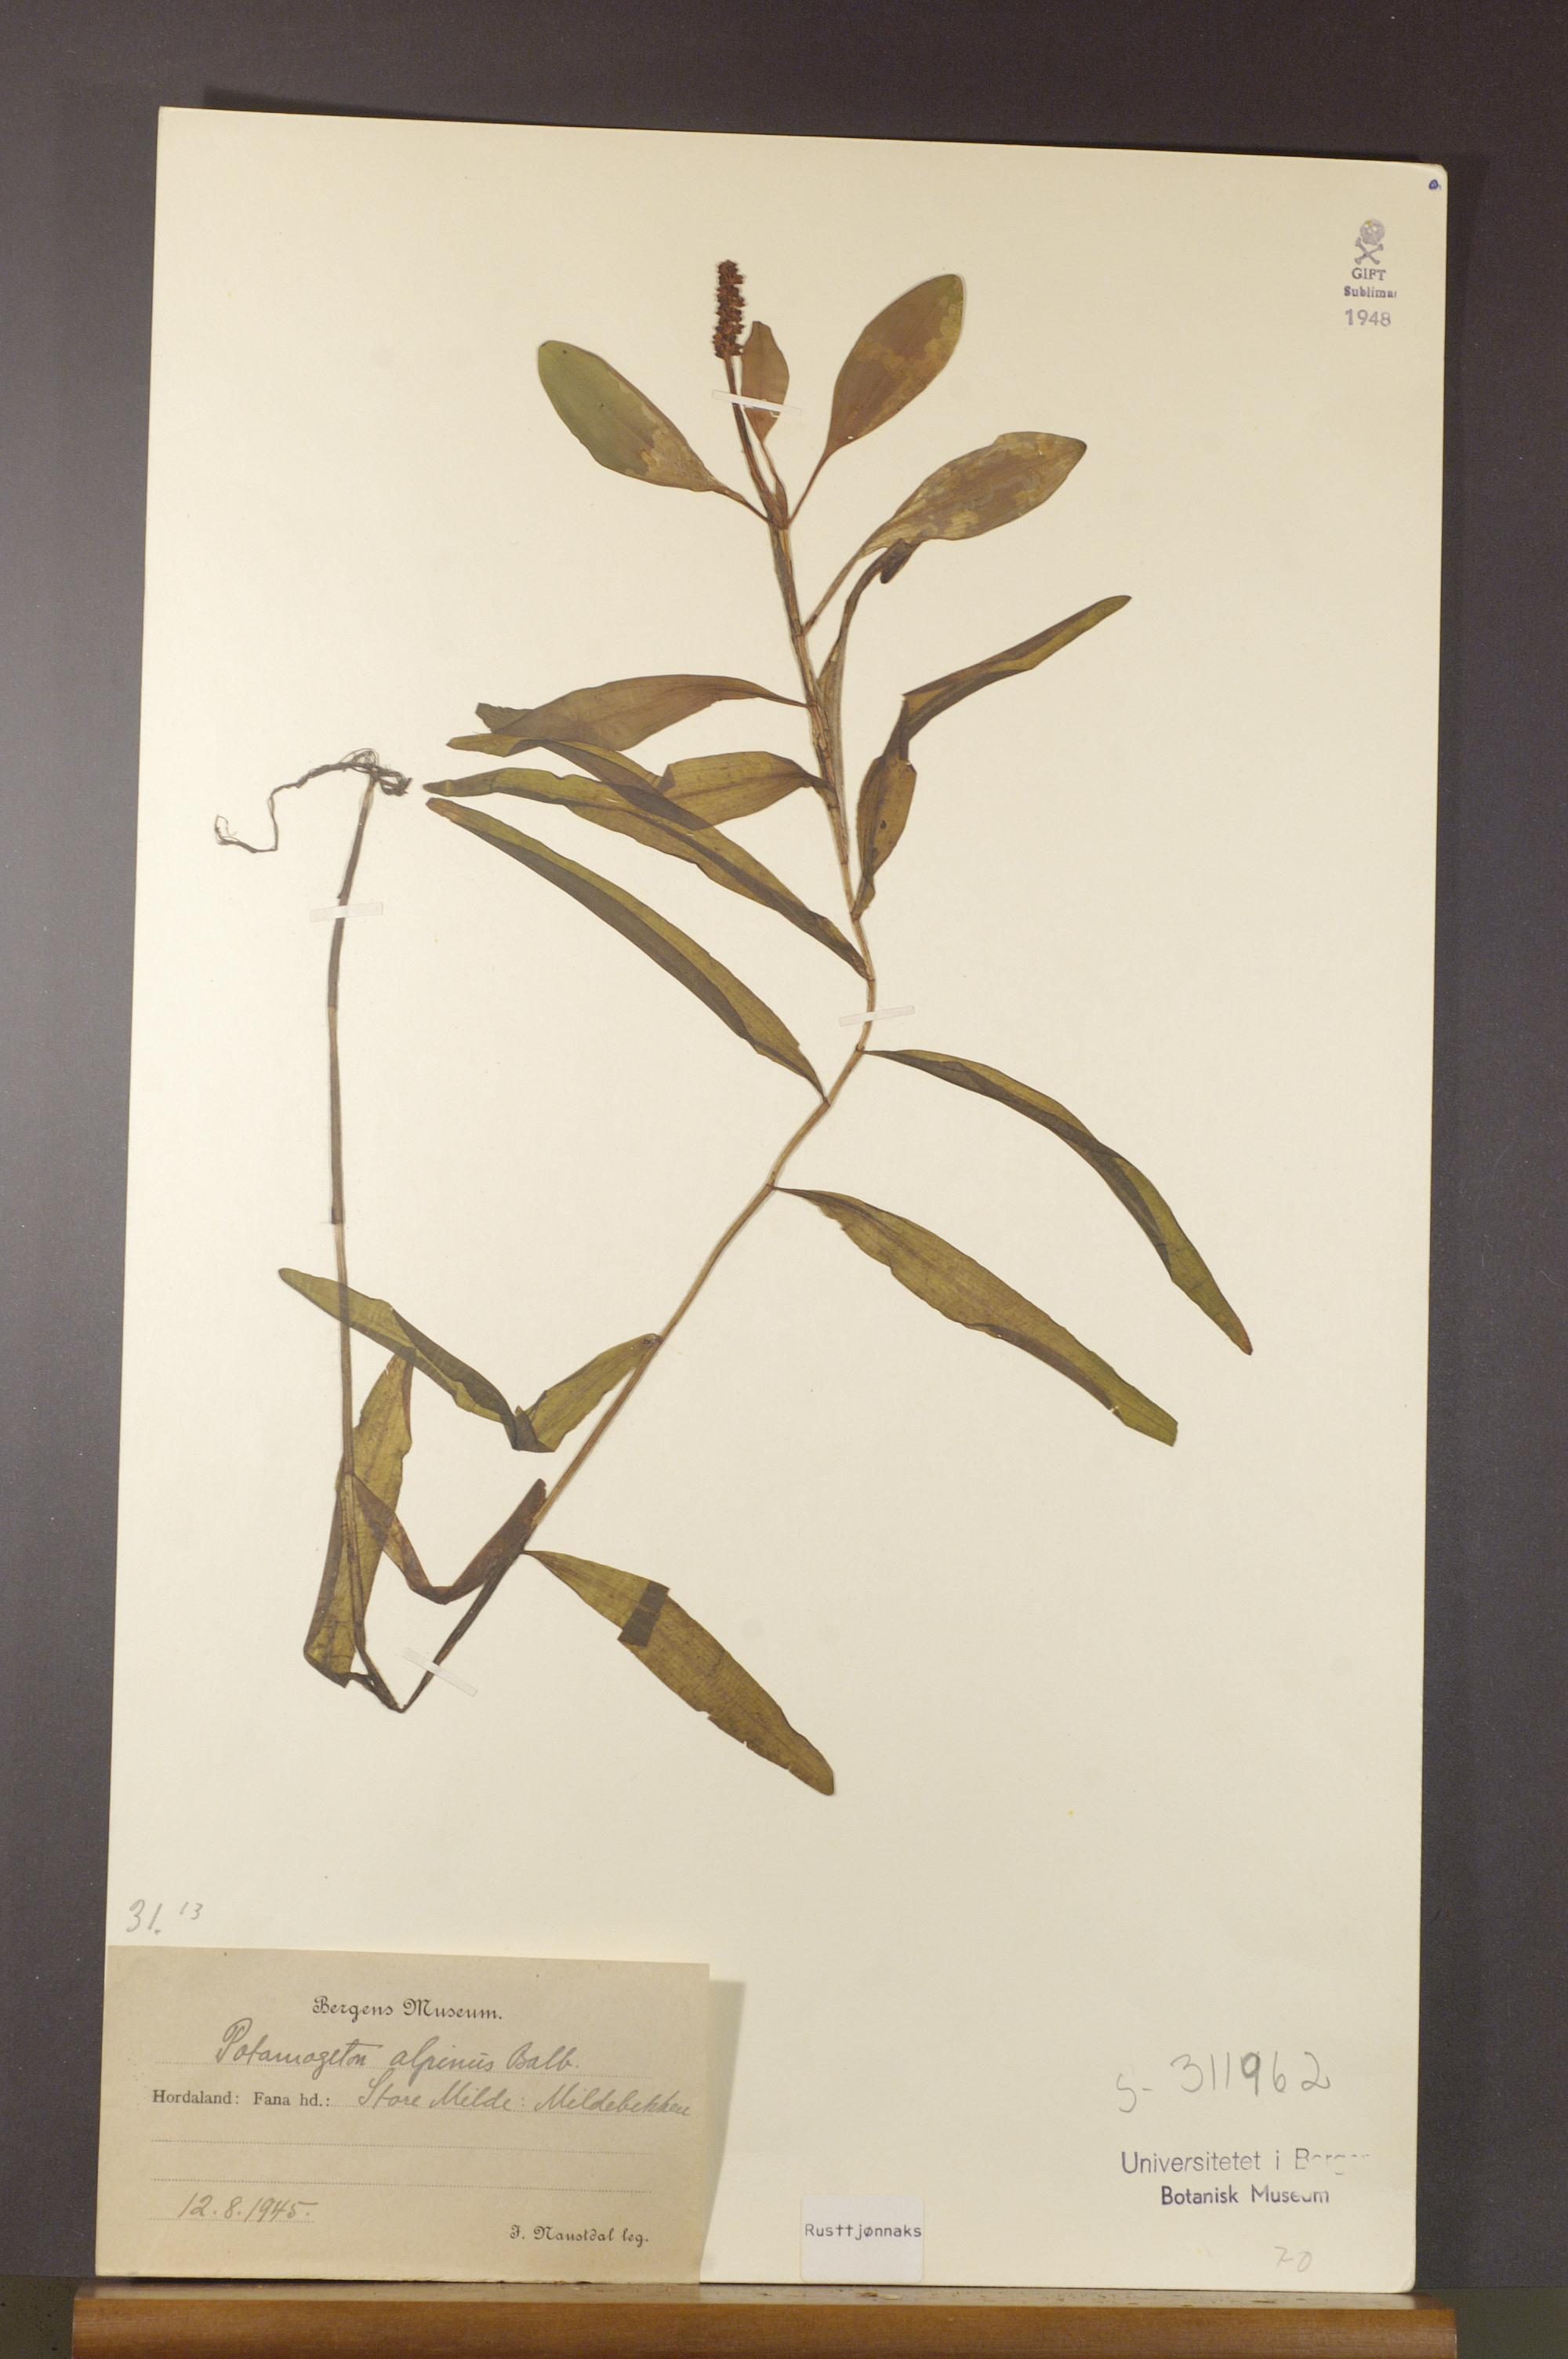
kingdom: Plantae
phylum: Tracheophyta
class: Liliopsida
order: Alismatales
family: Potamogetonaceae
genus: Potamogeton
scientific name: Potamogeton alpinus
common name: Red pondweed
